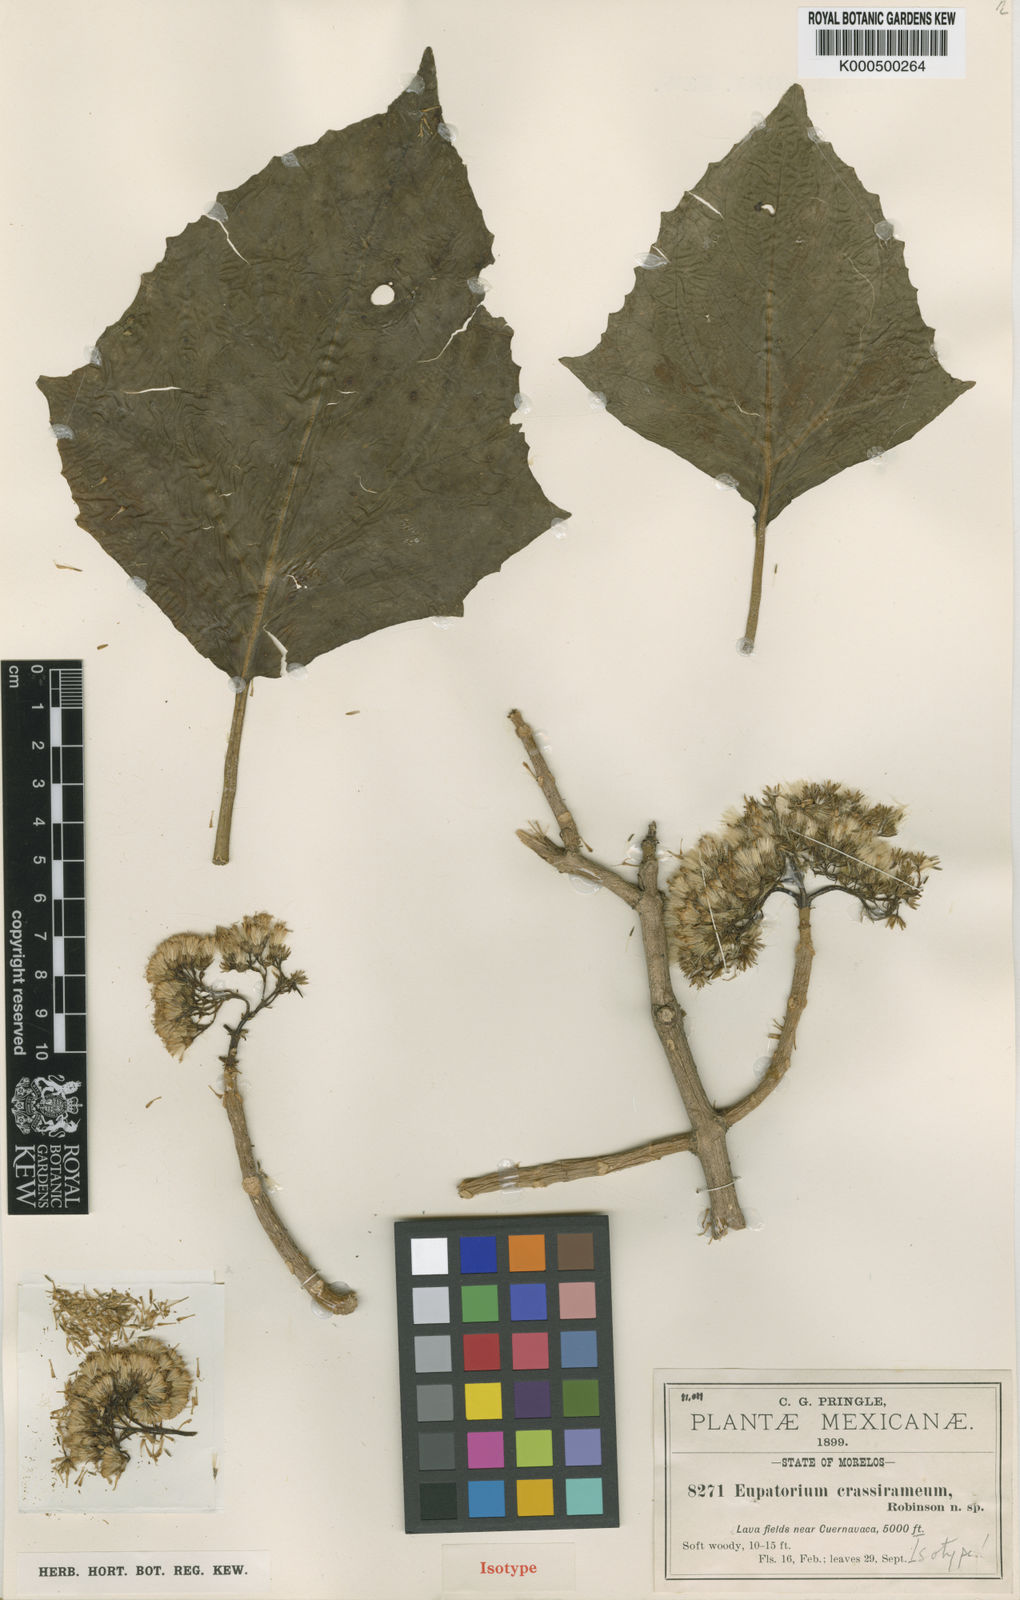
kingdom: Plantae
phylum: Tracheophyta
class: Magnoliopsida
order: Asterales
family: Asteraceae
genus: Ageratina
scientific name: Ageratina crassiramea
